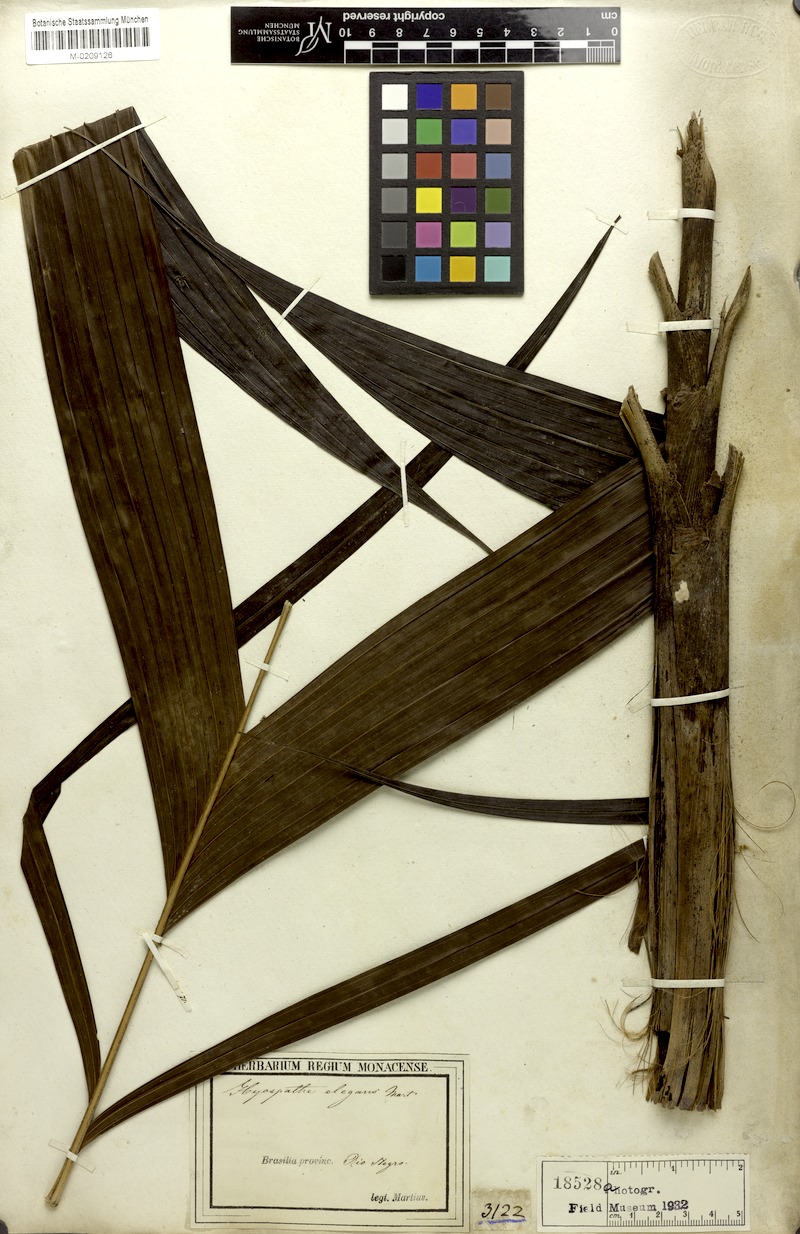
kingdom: Plantae
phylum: Tracheophyta
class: Liliopsida
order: Arecales
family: Arecaceae
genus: Hyospathe
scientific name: Hyospathe elegans
